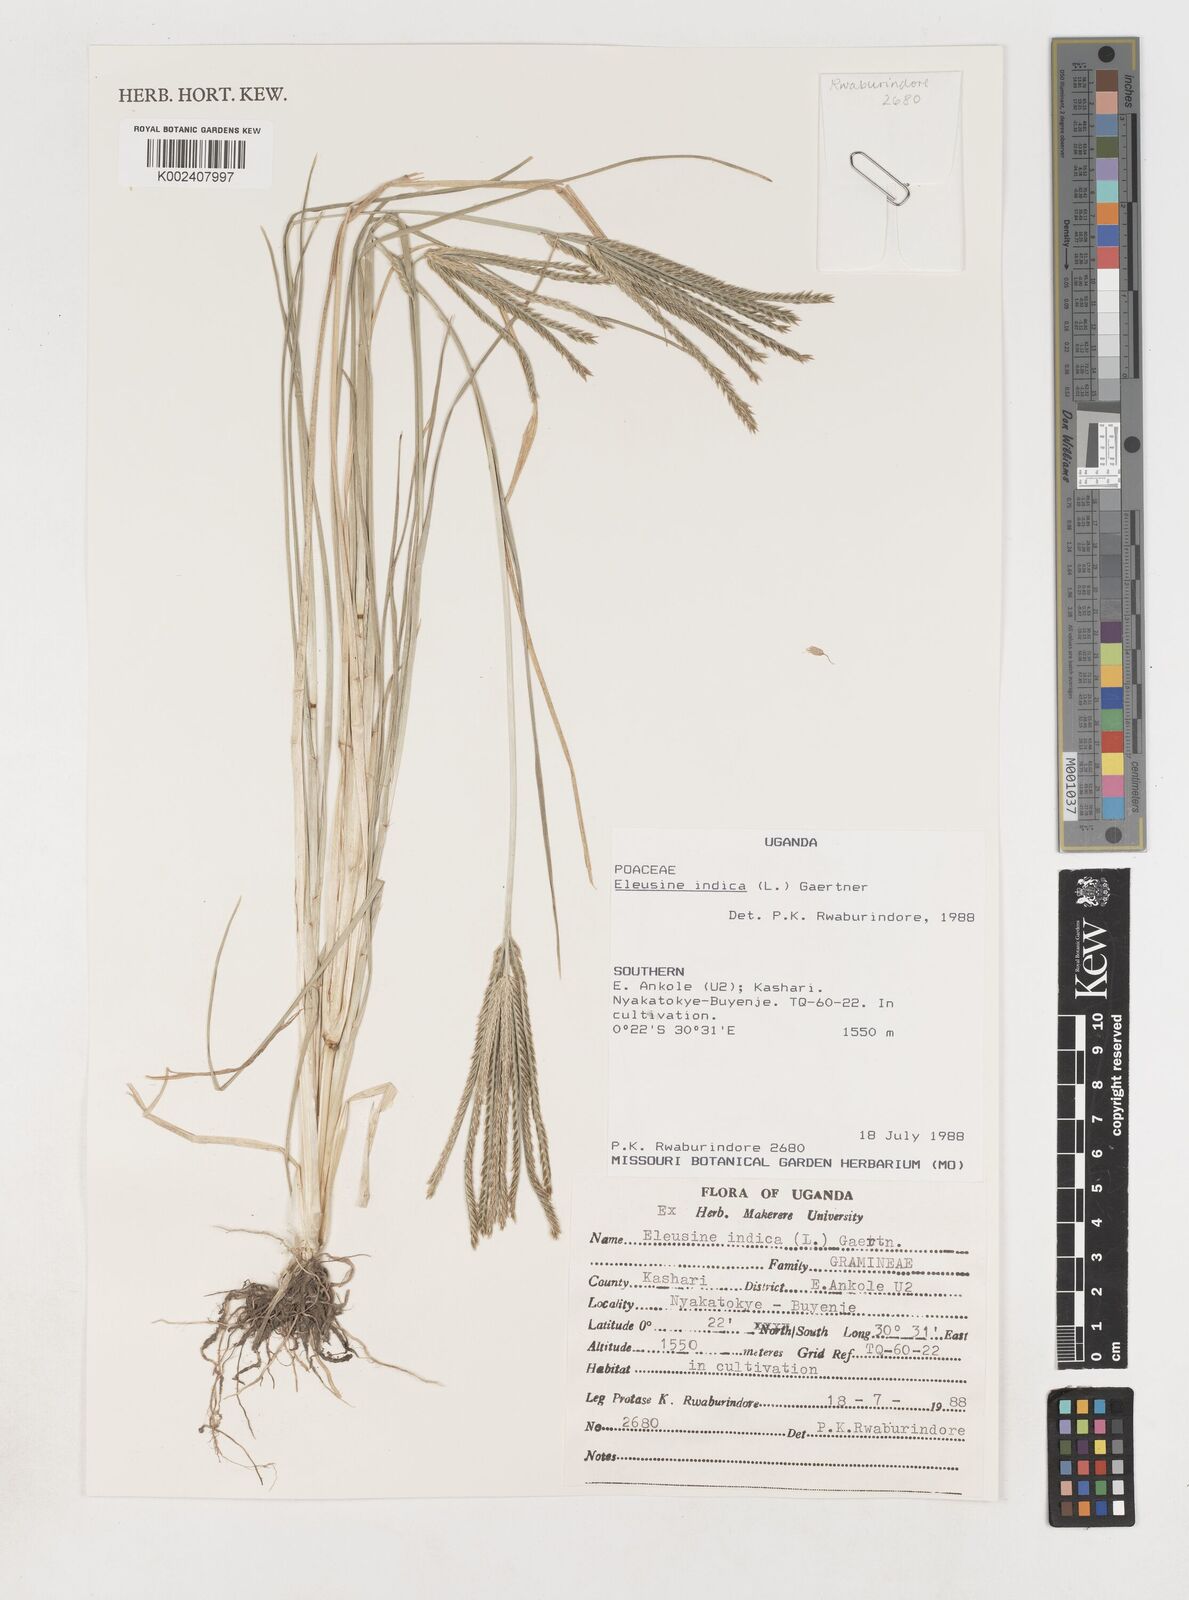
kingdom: Plantae
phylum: Tracheophyta
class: Liliopsida
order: Poales
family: Poaceae
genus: Eleusine
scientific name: Eleusine indica
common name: Yard-grass
